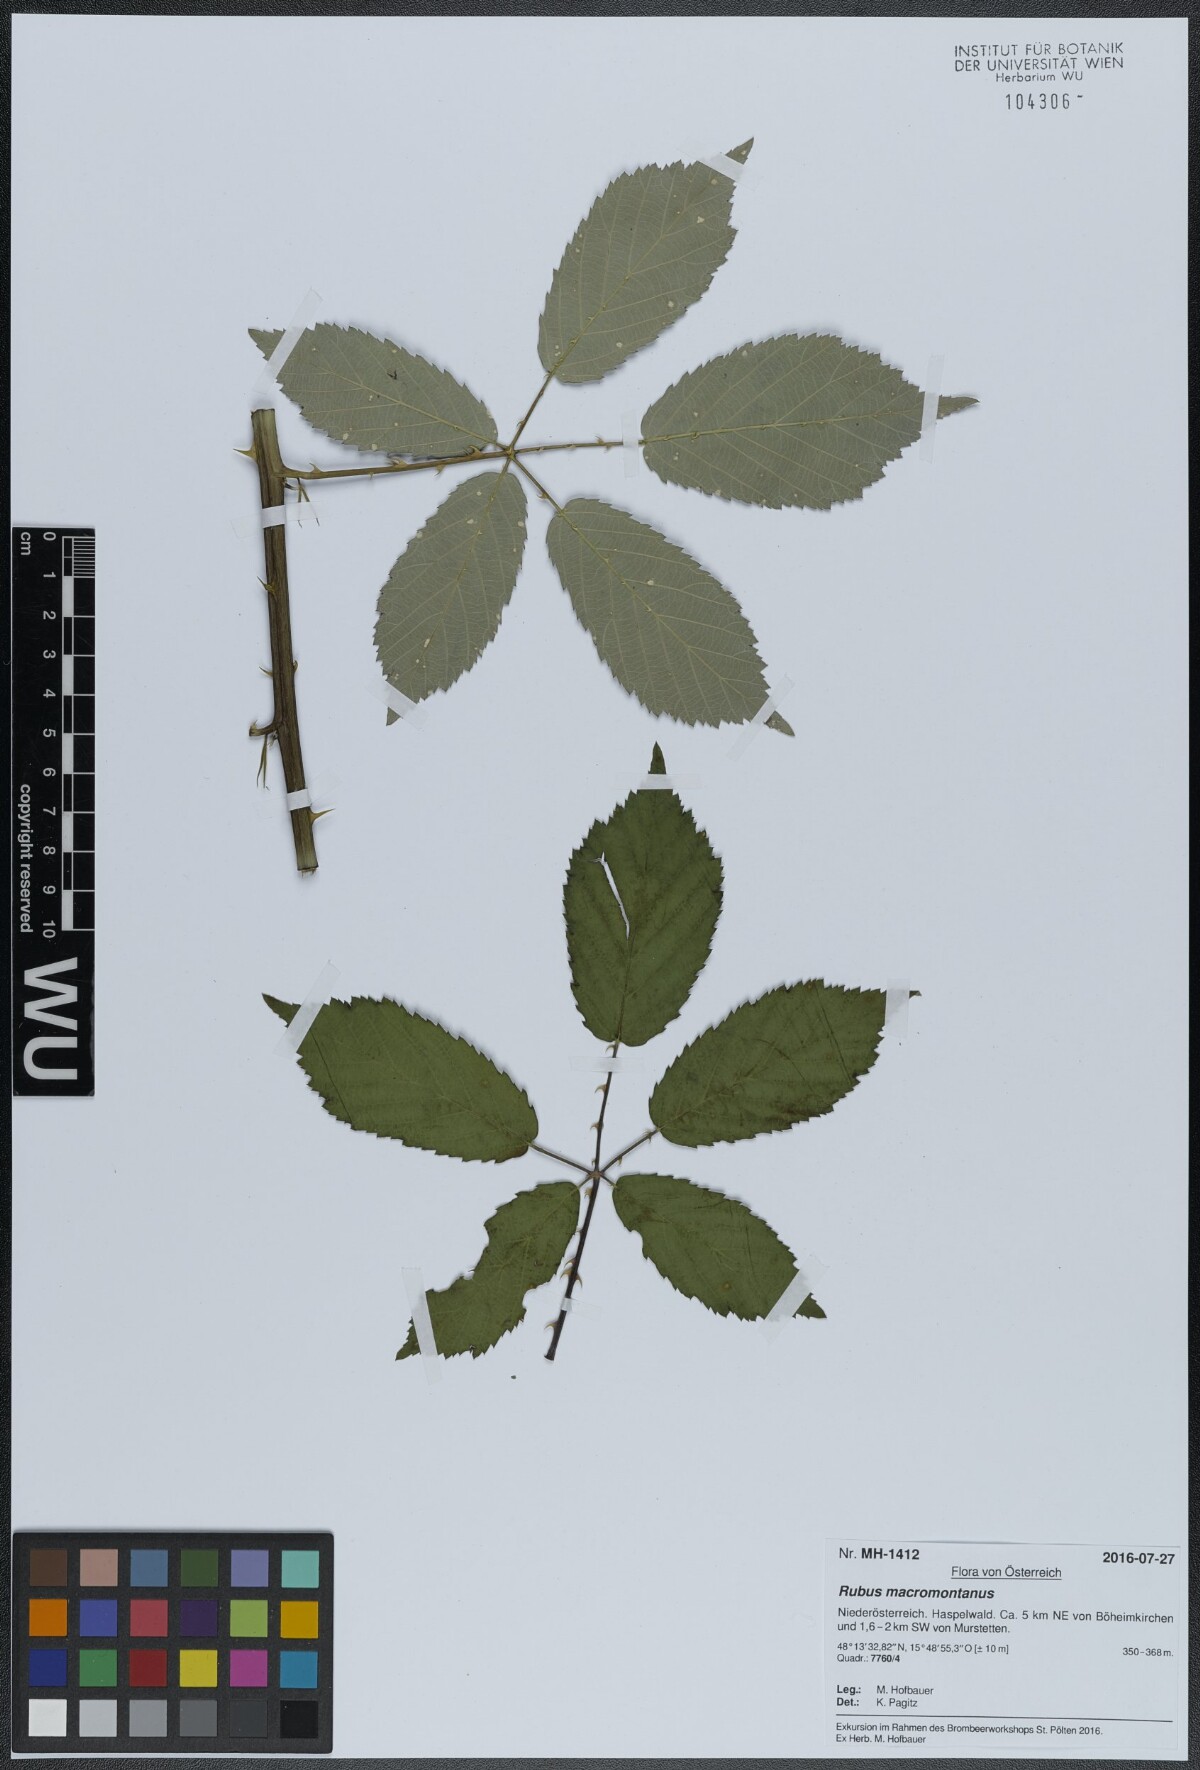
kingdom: Plantae
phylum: Tracheophyta
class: Magnoliopsida
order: Rosales
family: Rosaceae
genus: Rubus
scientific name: Rubus bicolor
